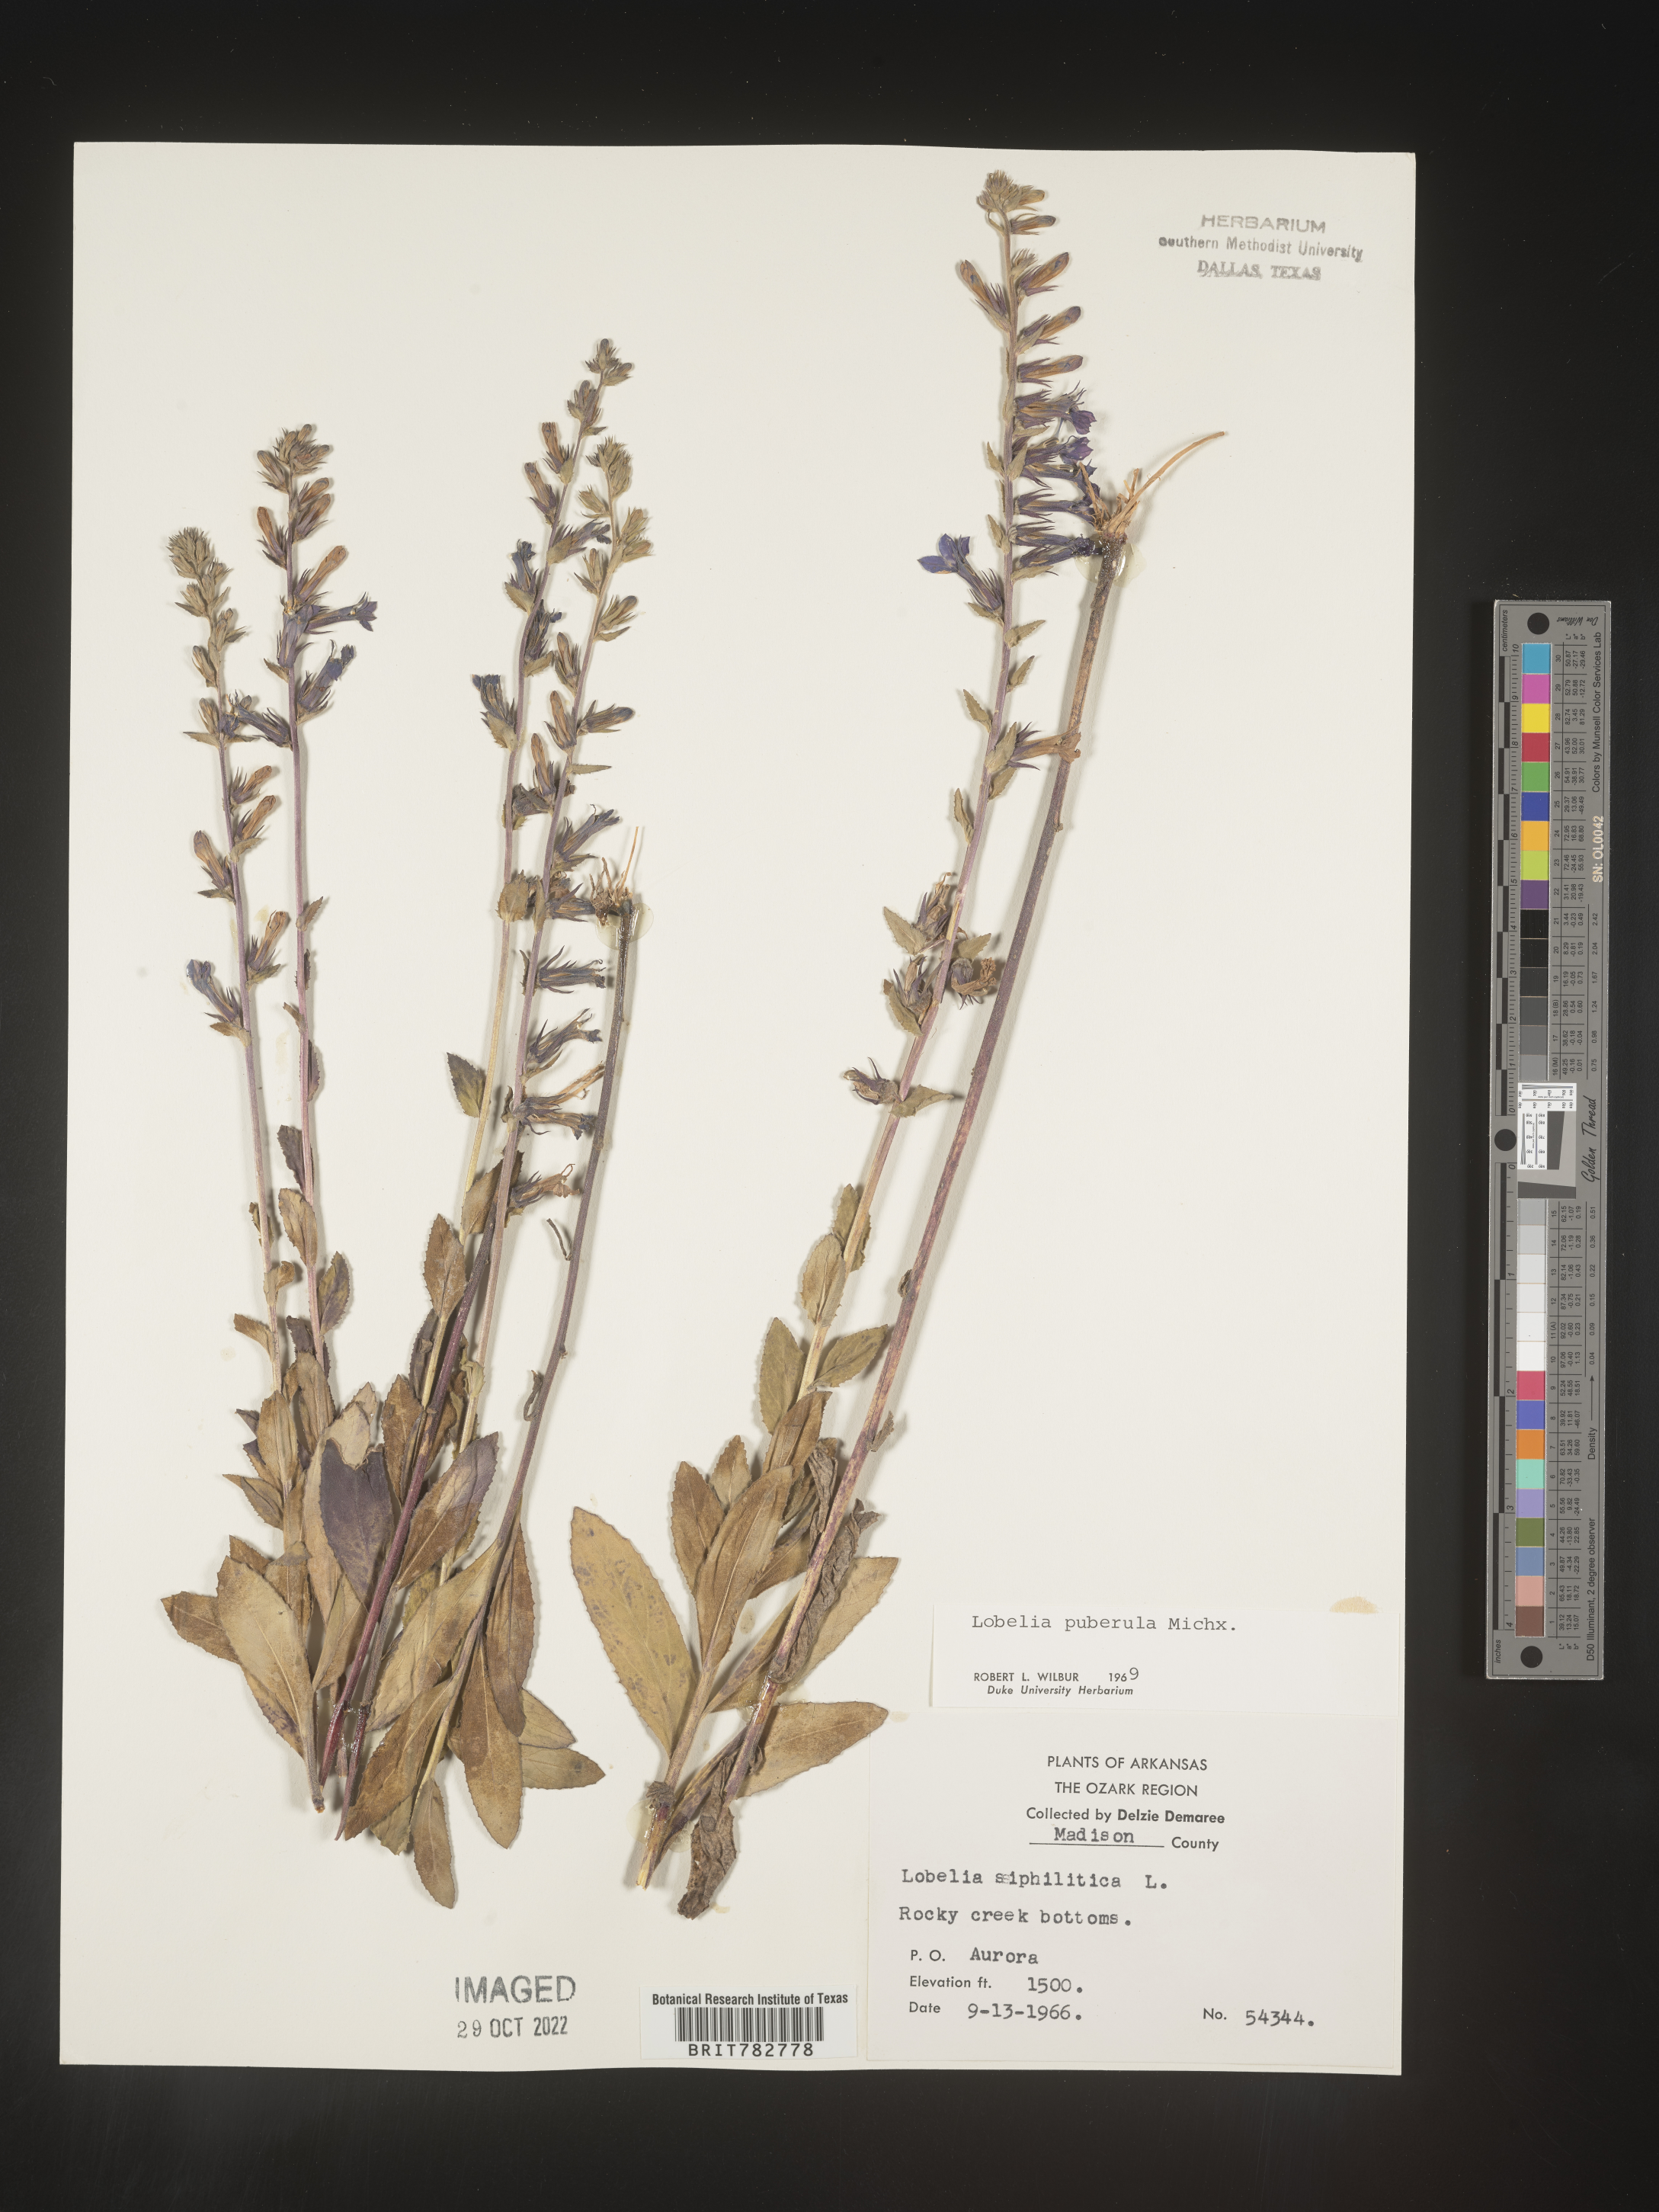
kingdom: Plantae
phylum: Tracheophyta
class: Magnoliopsida
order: Asterales
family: Campanulaceae
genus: Lobelia
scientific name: Lobelia puberula
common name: Purple dewdrop
